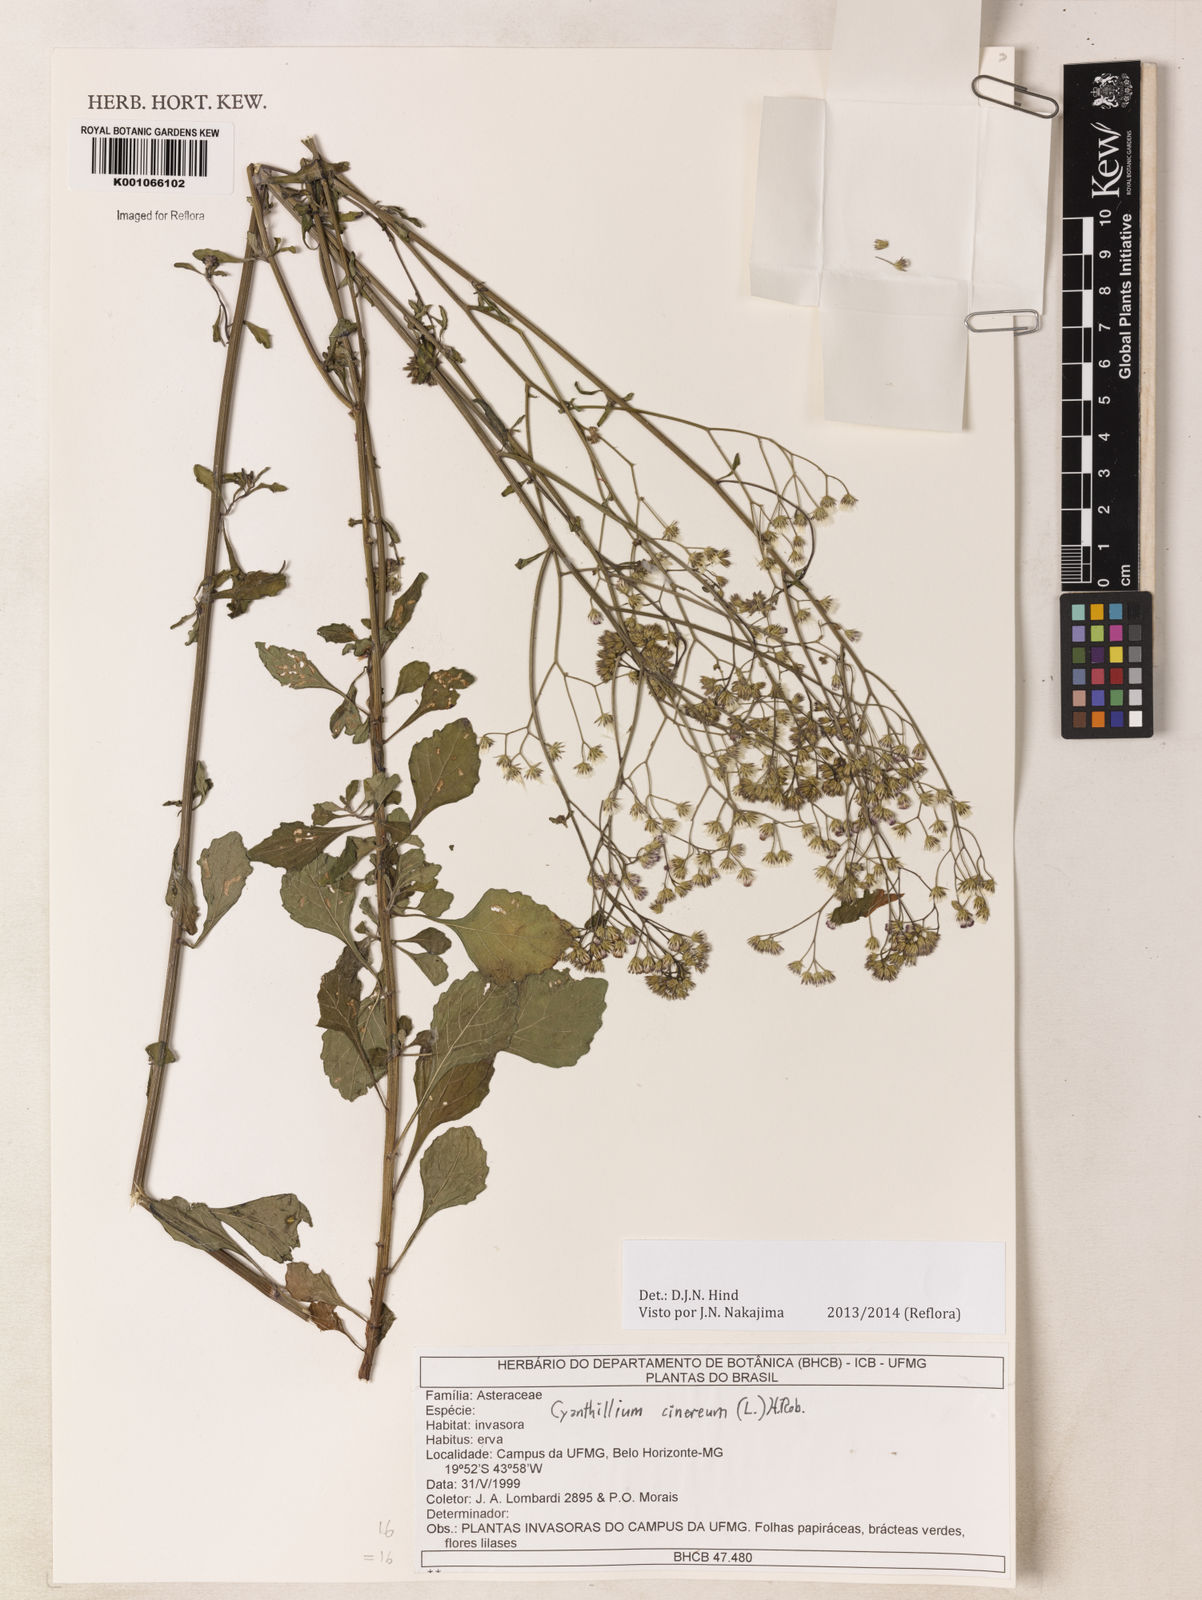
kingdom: Plantae
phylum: Tracheophyta
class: Magnoliopsida
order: Asterales
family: Asteraceae
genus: Cyanthillium
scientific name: Cyanthillium cinereum
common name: Little ironweed
